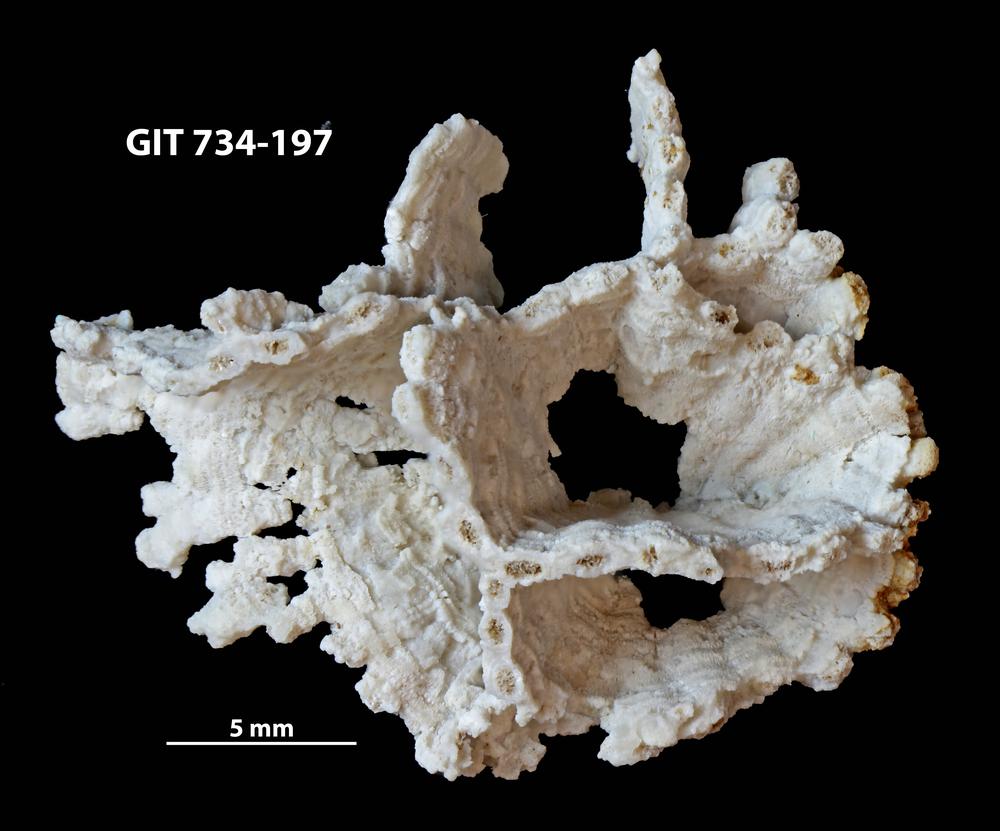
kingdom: Animalia
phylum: Cnidaria
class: Anthozoa
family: Cateniporidae
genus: Catenipora
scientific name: Catenipora
